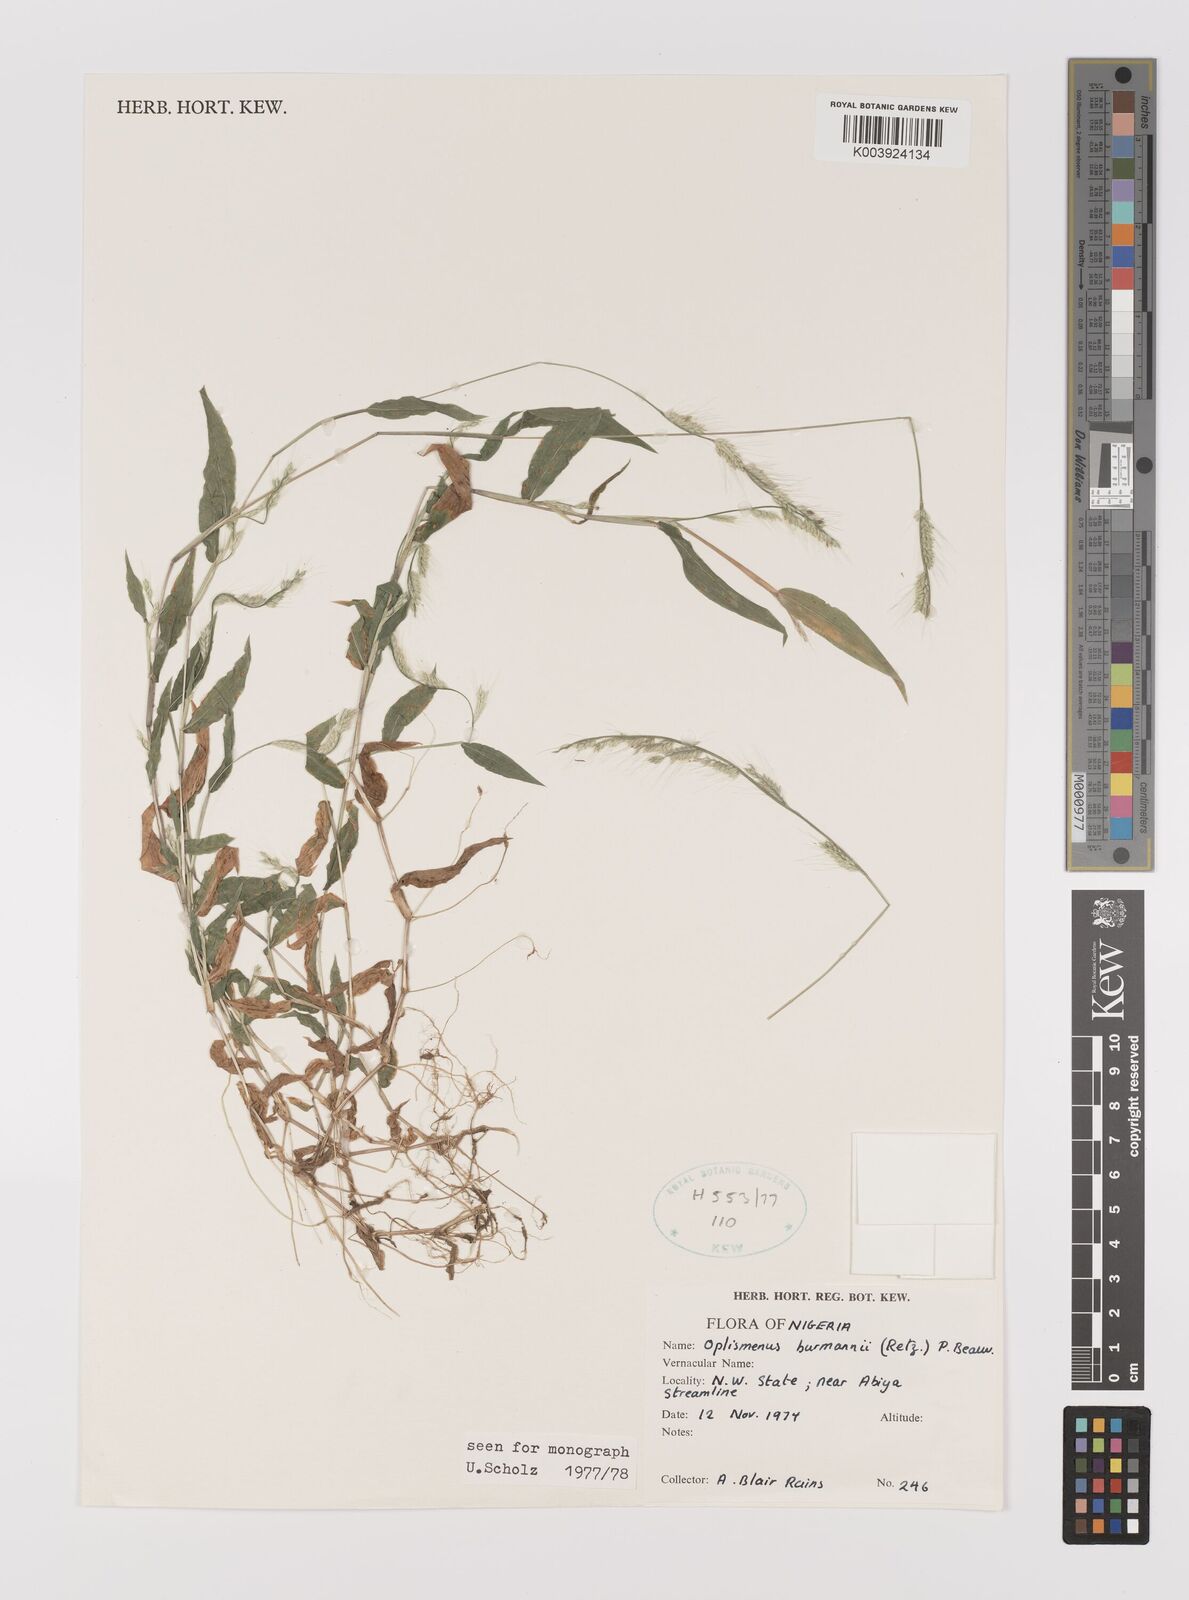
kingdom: Plantae
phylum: Tracheophyta
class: Liliopsida
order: Poales
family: Poaceae
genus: Oplismenus
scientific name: Oplismenus burmanni
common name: Burmann's basketgrass
